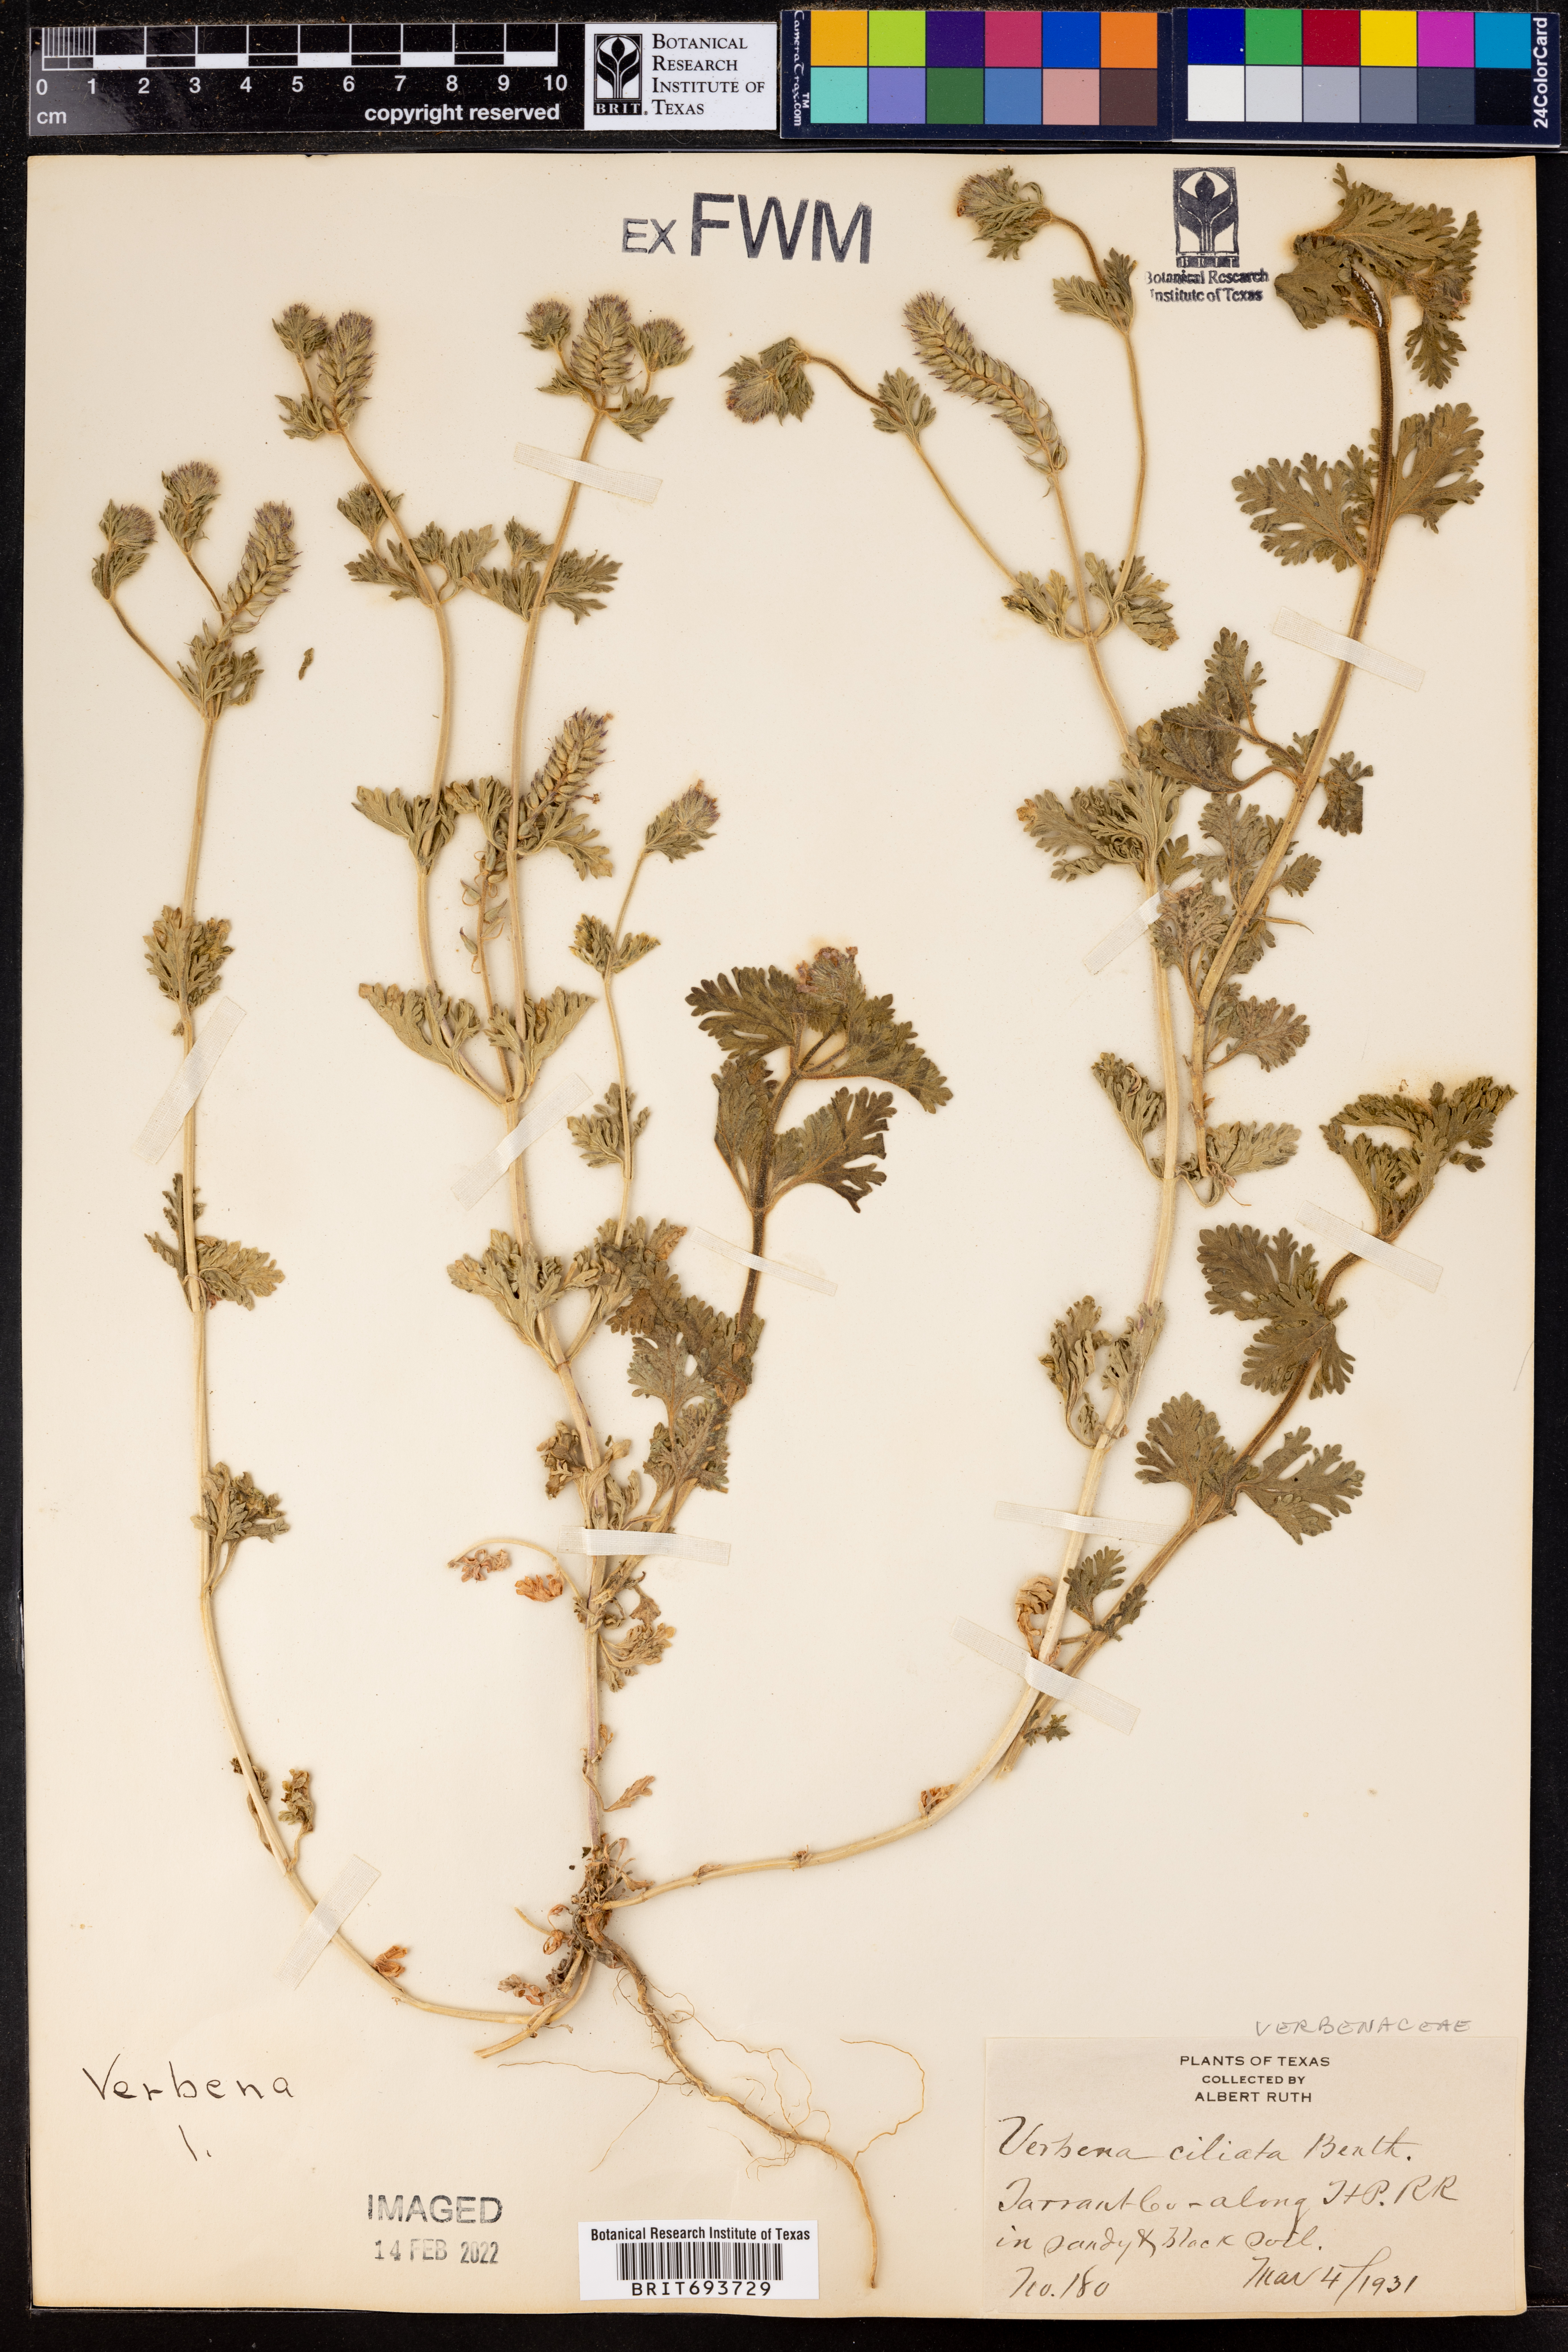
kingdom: Plantae
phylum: Tracheophyta
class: Magnoliopsida
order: Lamiales
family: Verbenaceae
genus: Verbena
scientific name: Verbena bipinnatifida
